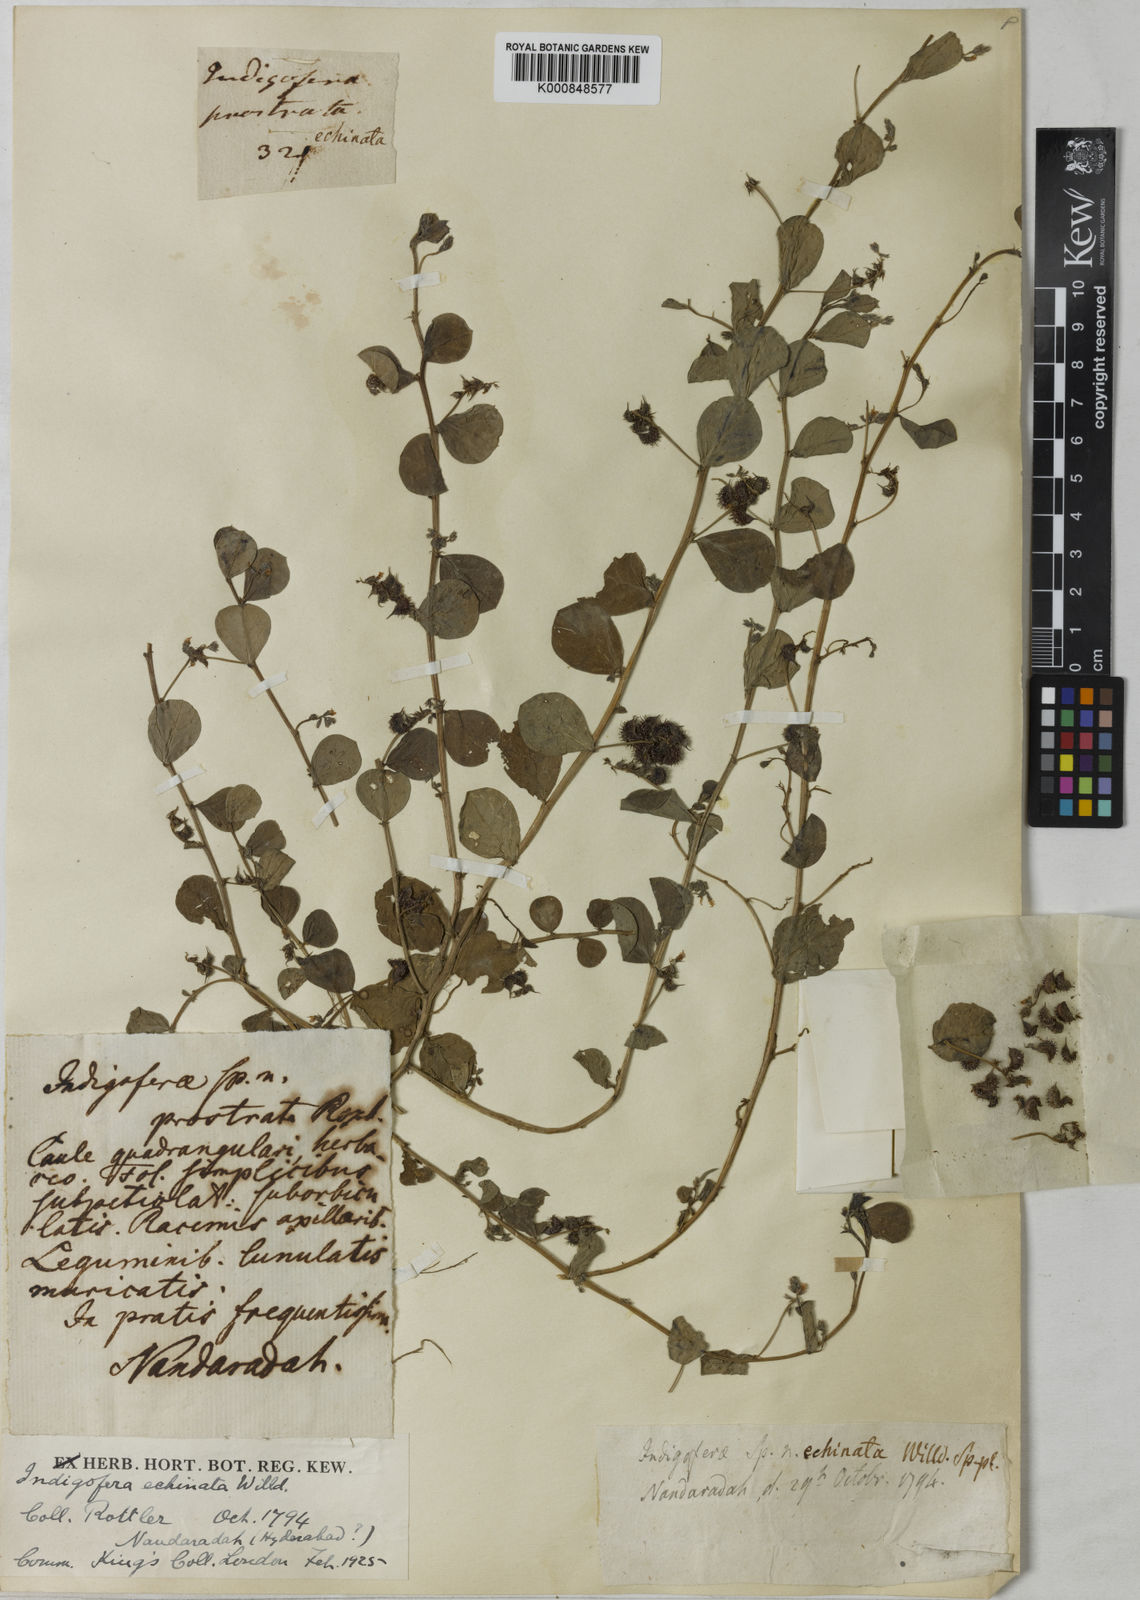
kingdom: Plantae
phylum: Tracheophyta
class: Magnoliopsida
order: Fabales
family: Fabaceae
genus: Indigofera
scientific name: Indigofera nummulariifolia
